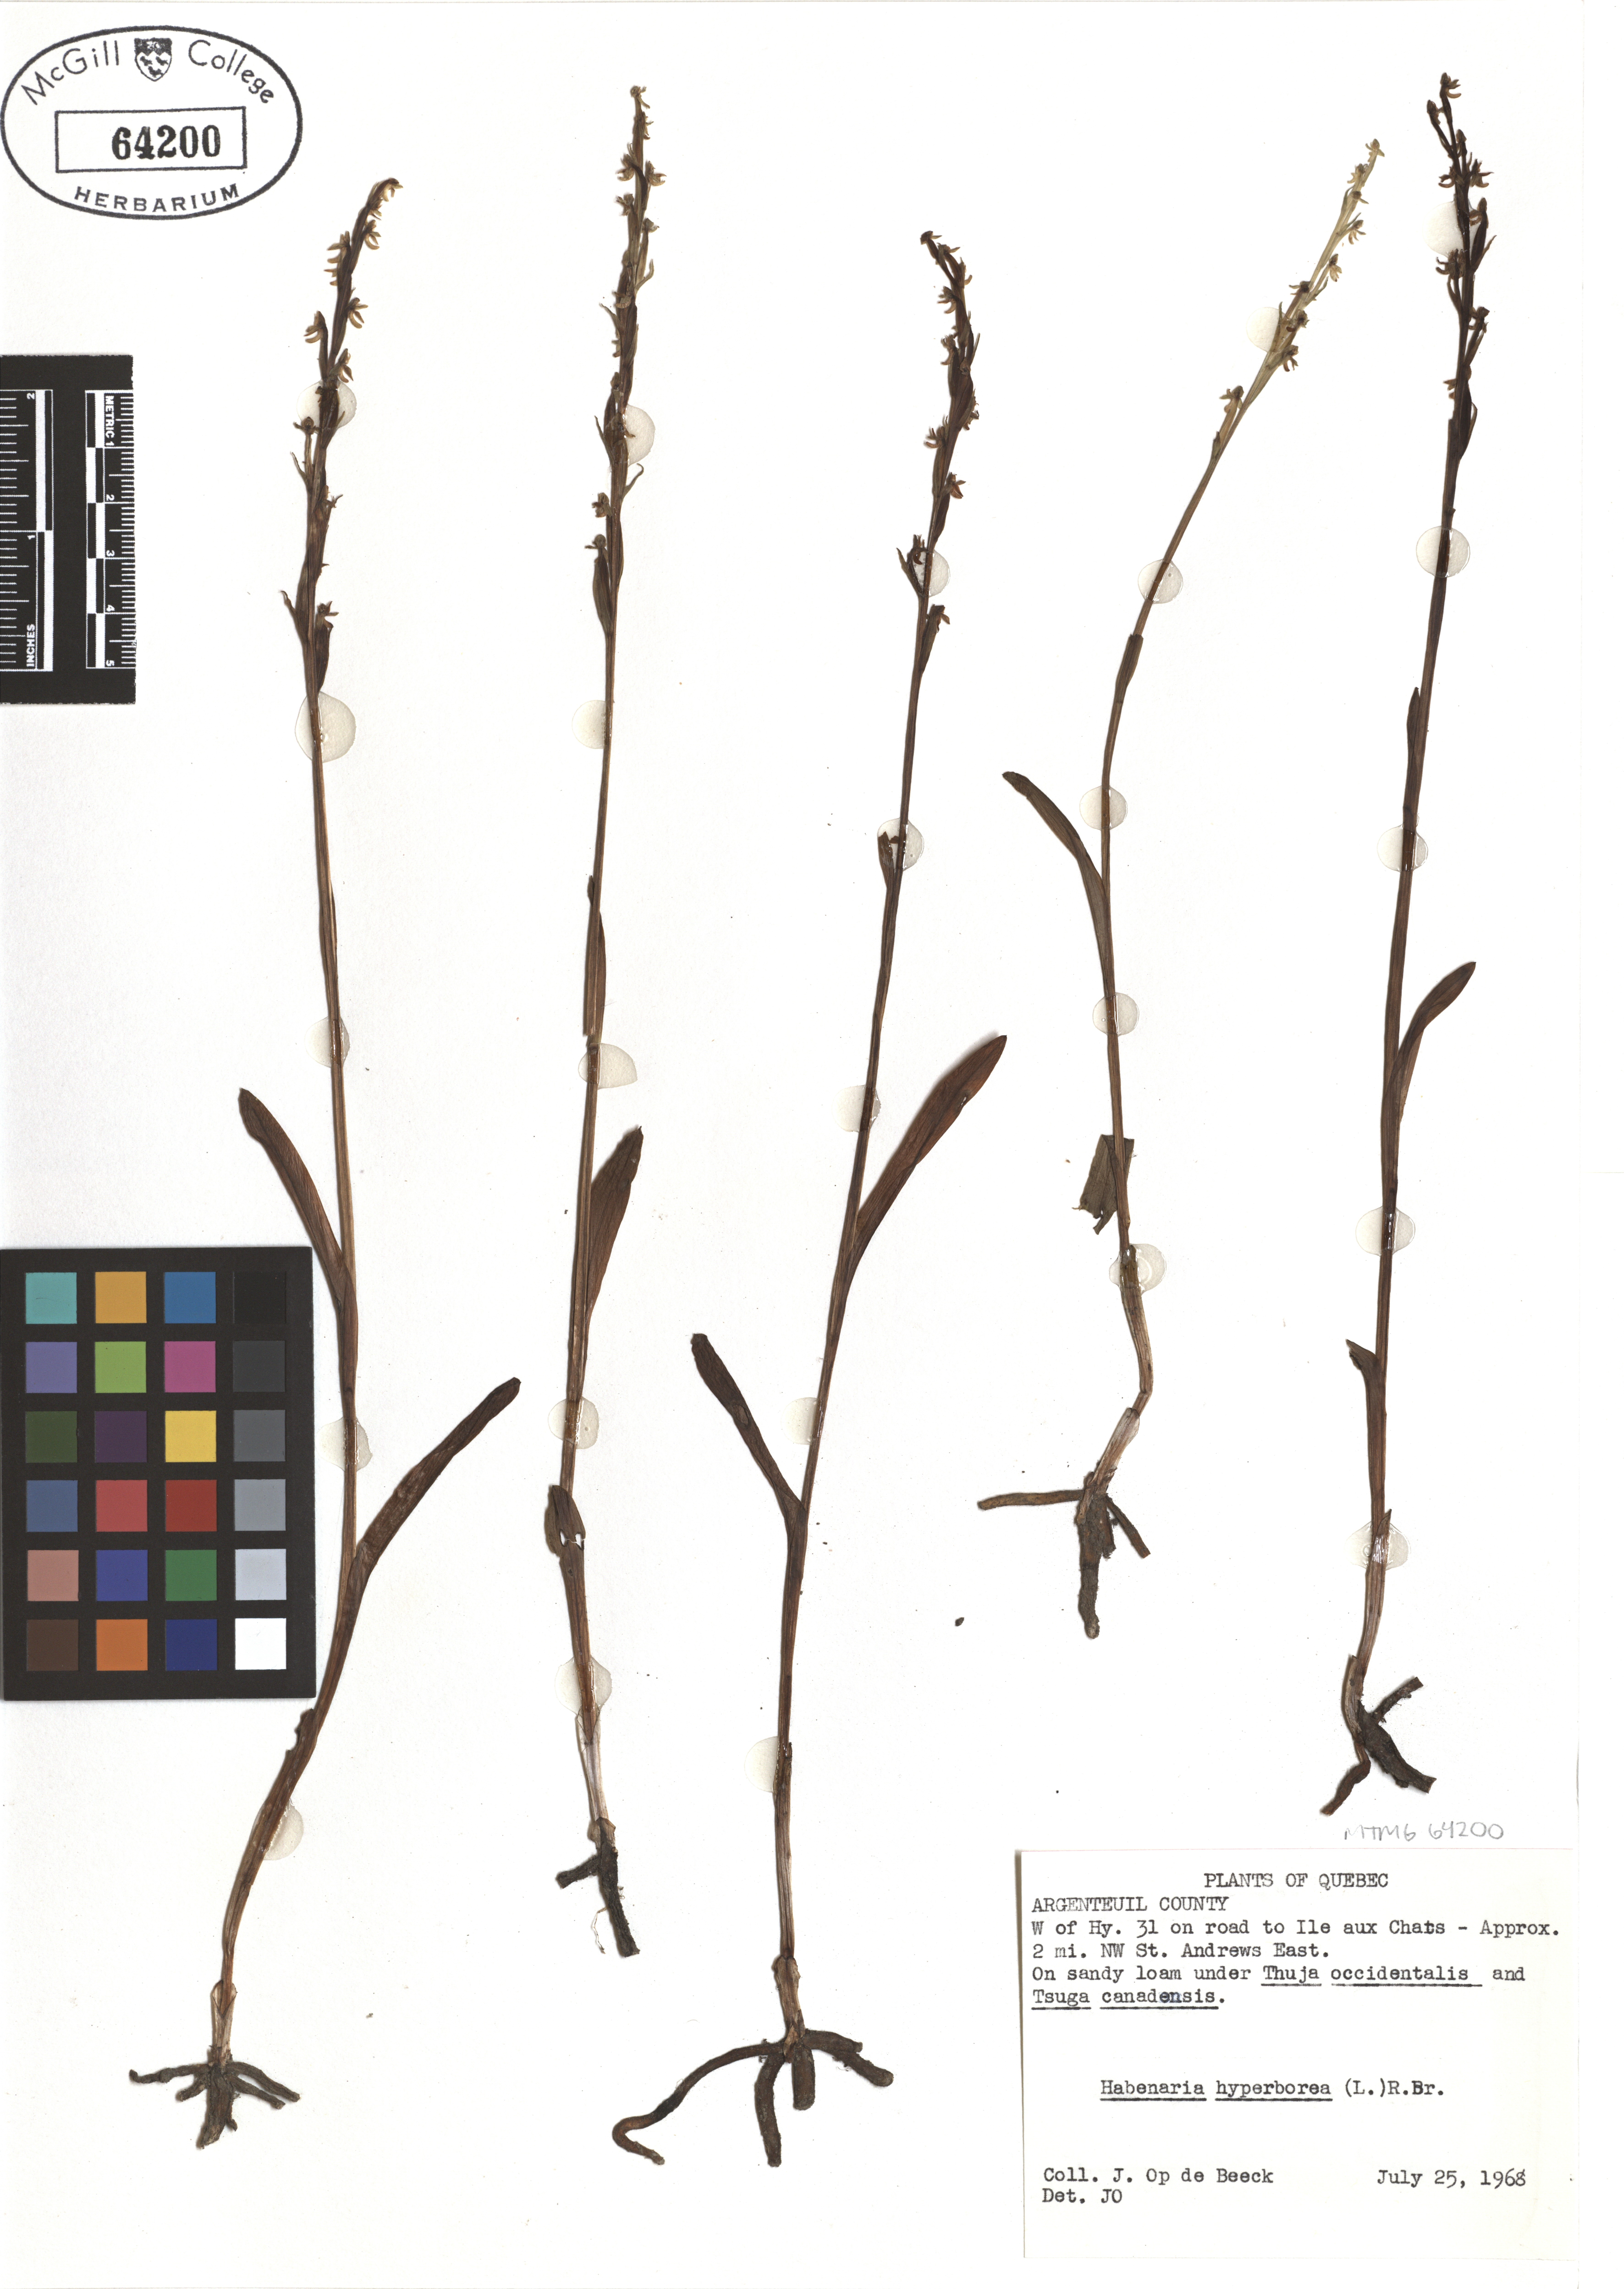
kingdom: Plantae
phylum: Tracheophyta
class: Liliopsida
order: Asparagales
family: Orchidaceae
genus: Platanthera
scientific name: Platanthera hyperborea
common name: Northern green orchid
